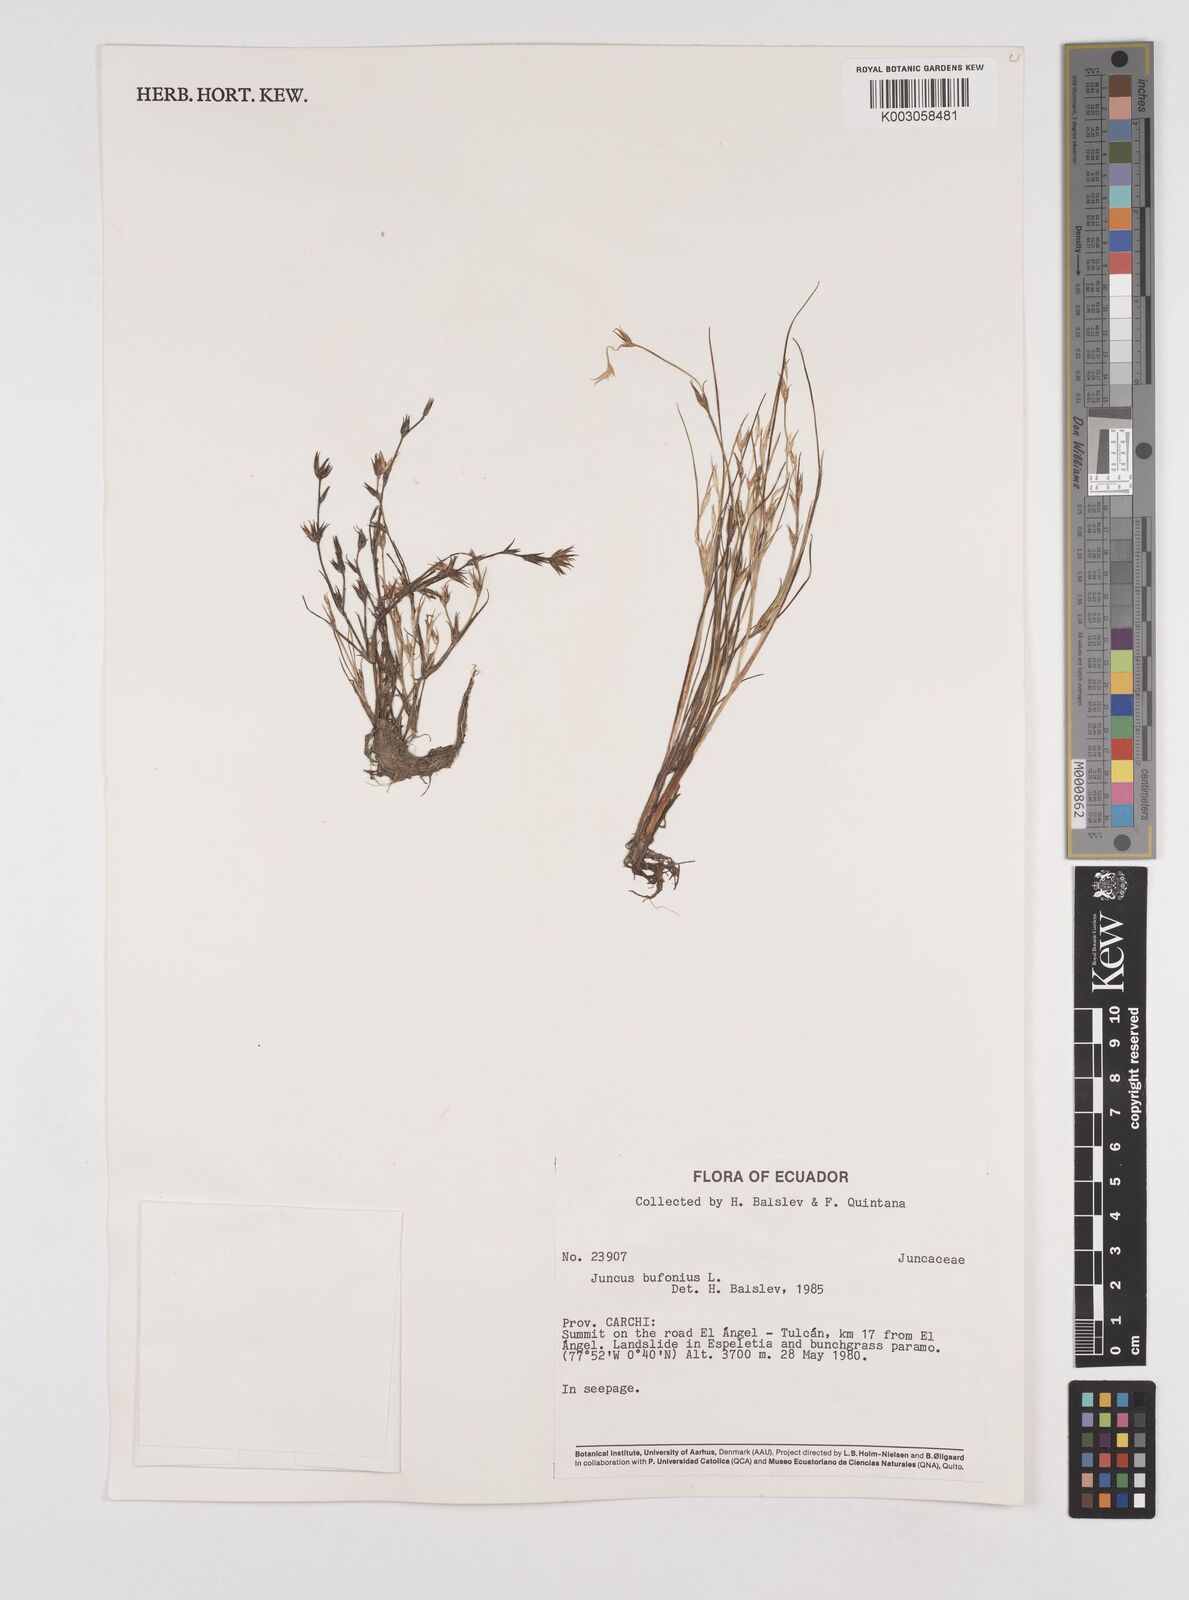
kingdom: Plantae
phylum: Tracheophyta
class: Liliopsida
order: Poales
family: Juncaceae
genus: Juncus
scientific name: Juncus bufonius
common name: Toad rush
